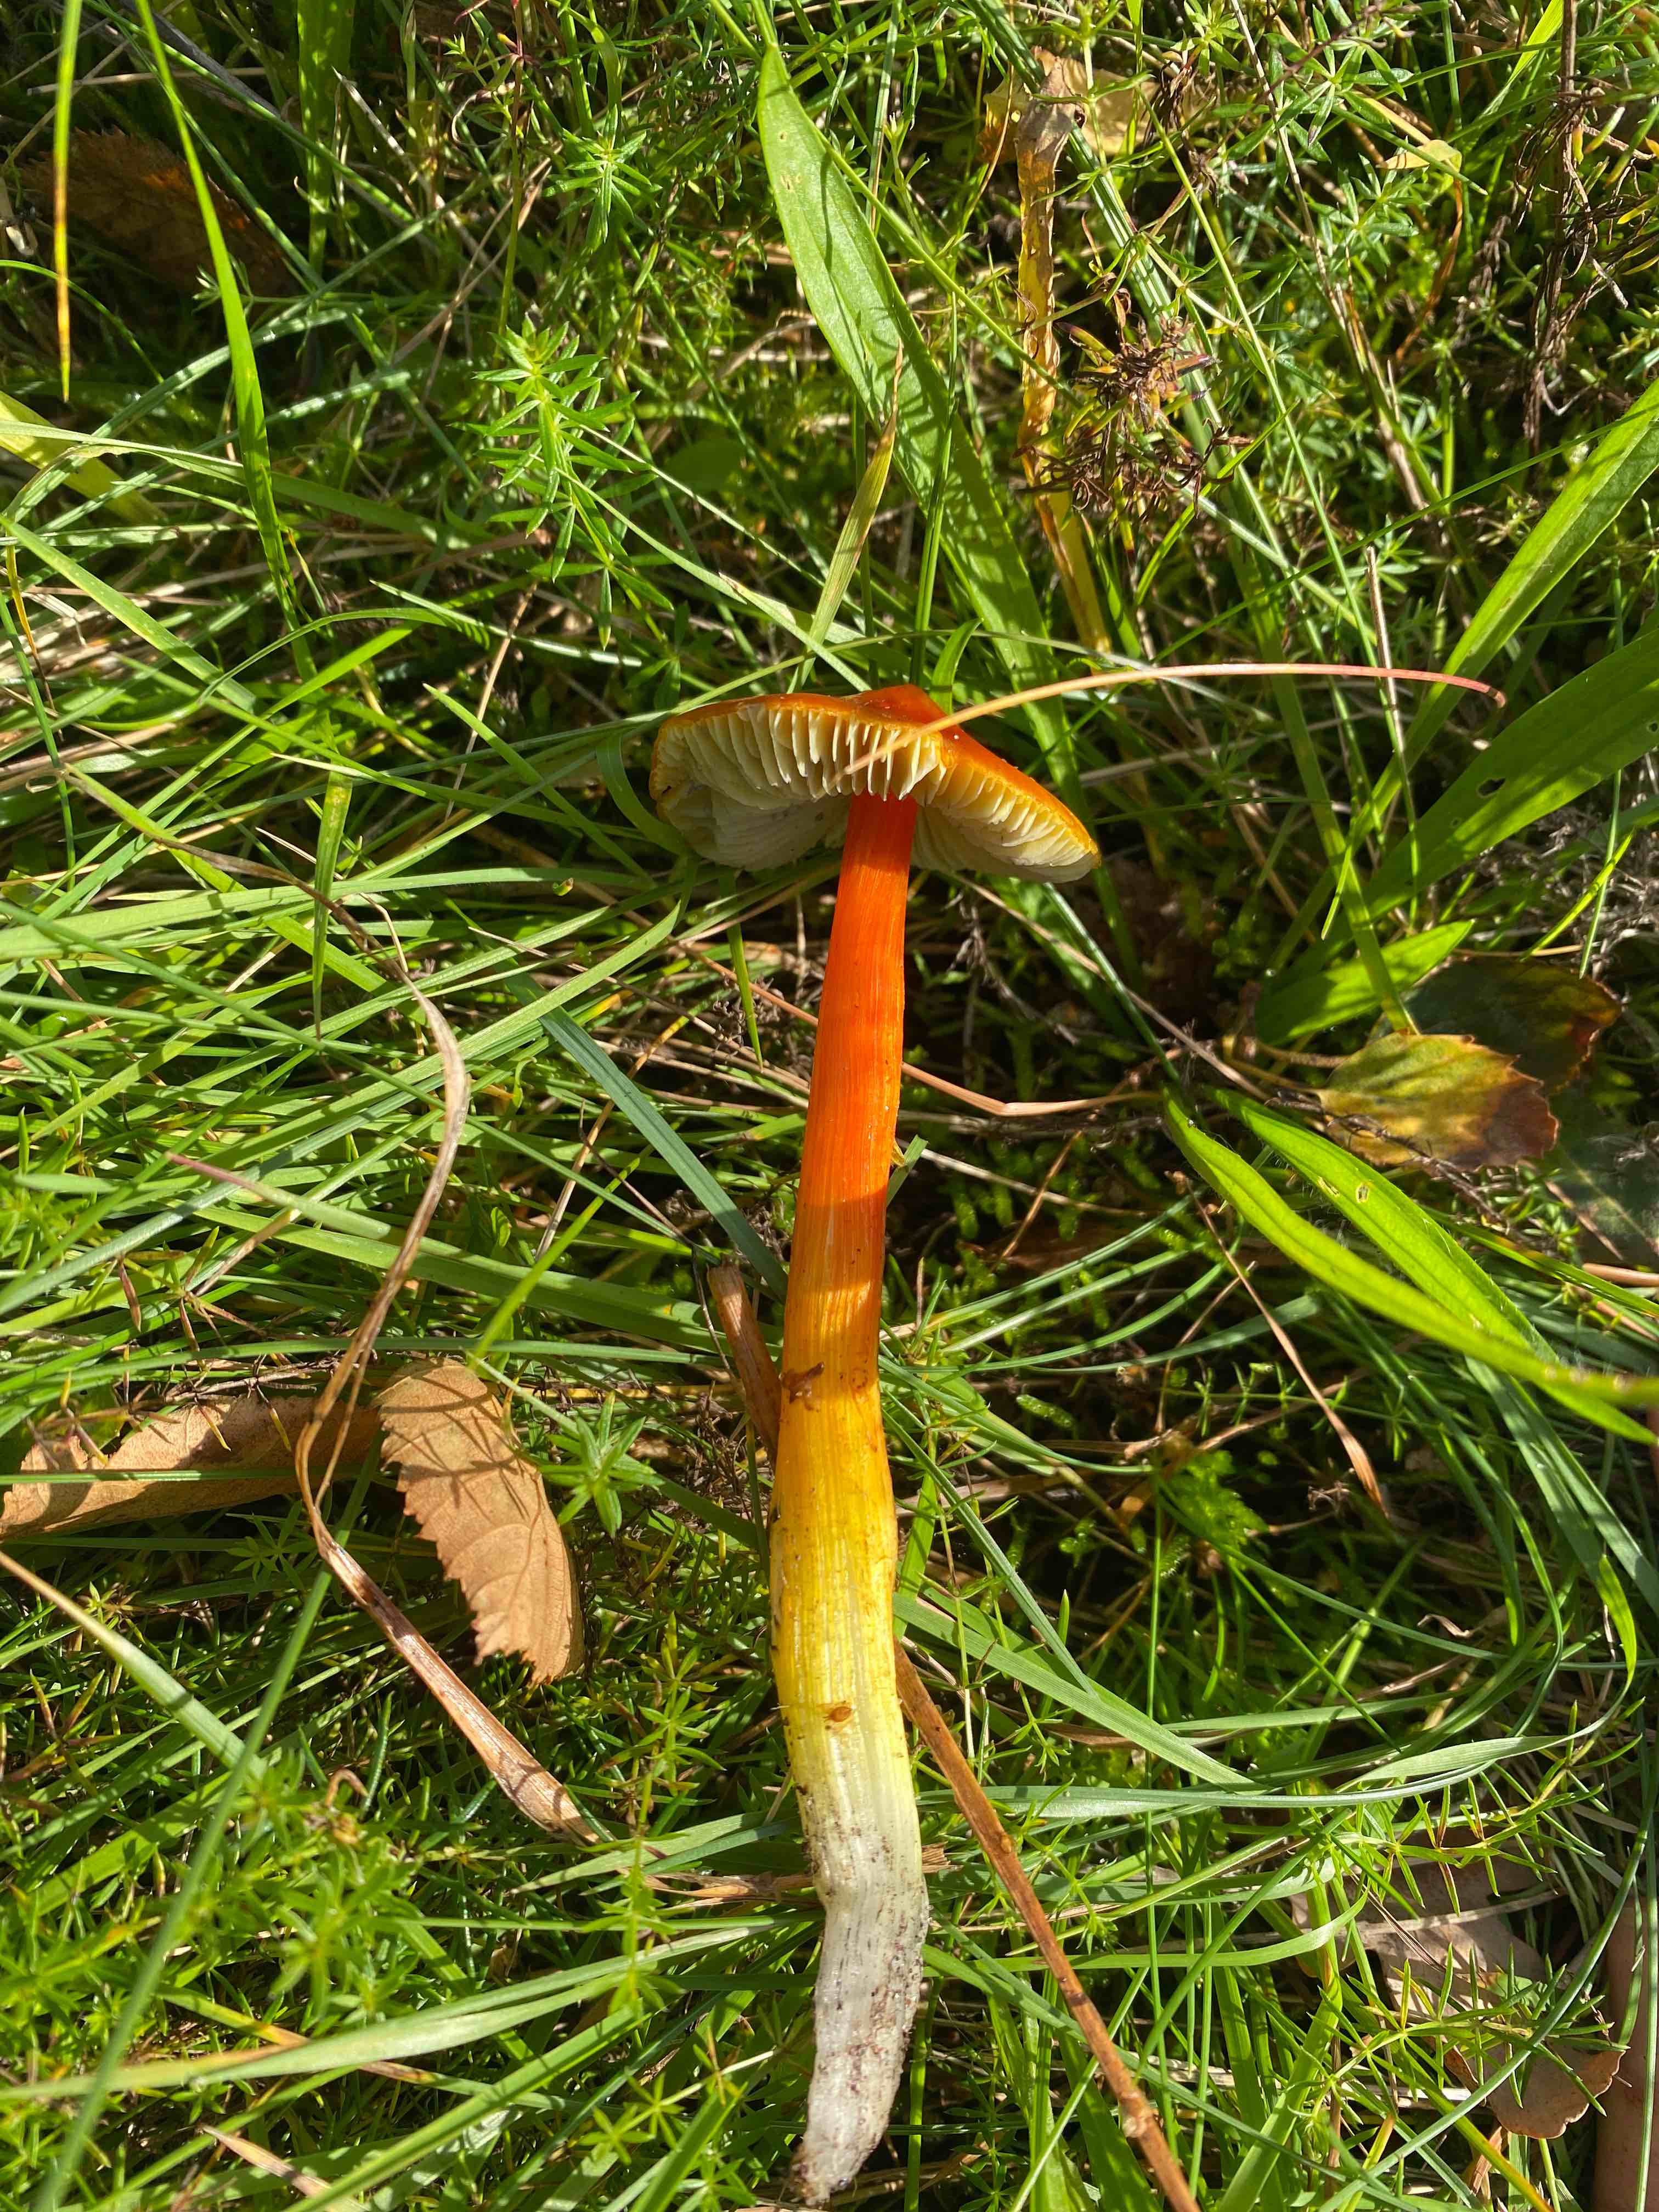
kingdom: Fungi
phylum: Basidiomycota
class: Agaricomycetes
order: Agaricales
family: Hygrophoraceae
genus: Hygrocybe
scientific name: Hygrocybe conica
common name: kegle-vokshat
